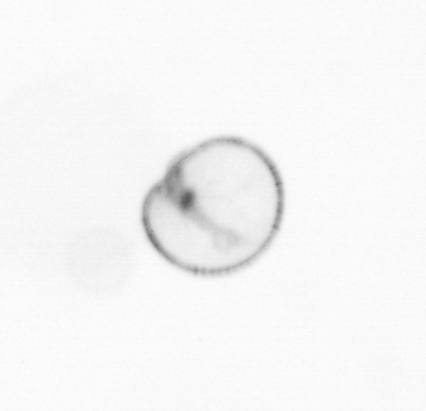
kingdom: Chromista
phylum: Myzozoa
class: Dinophyceae
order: Noctilucales
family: Noctilucaceae
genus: Noctiluca
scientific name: Noctiluca scintillans
